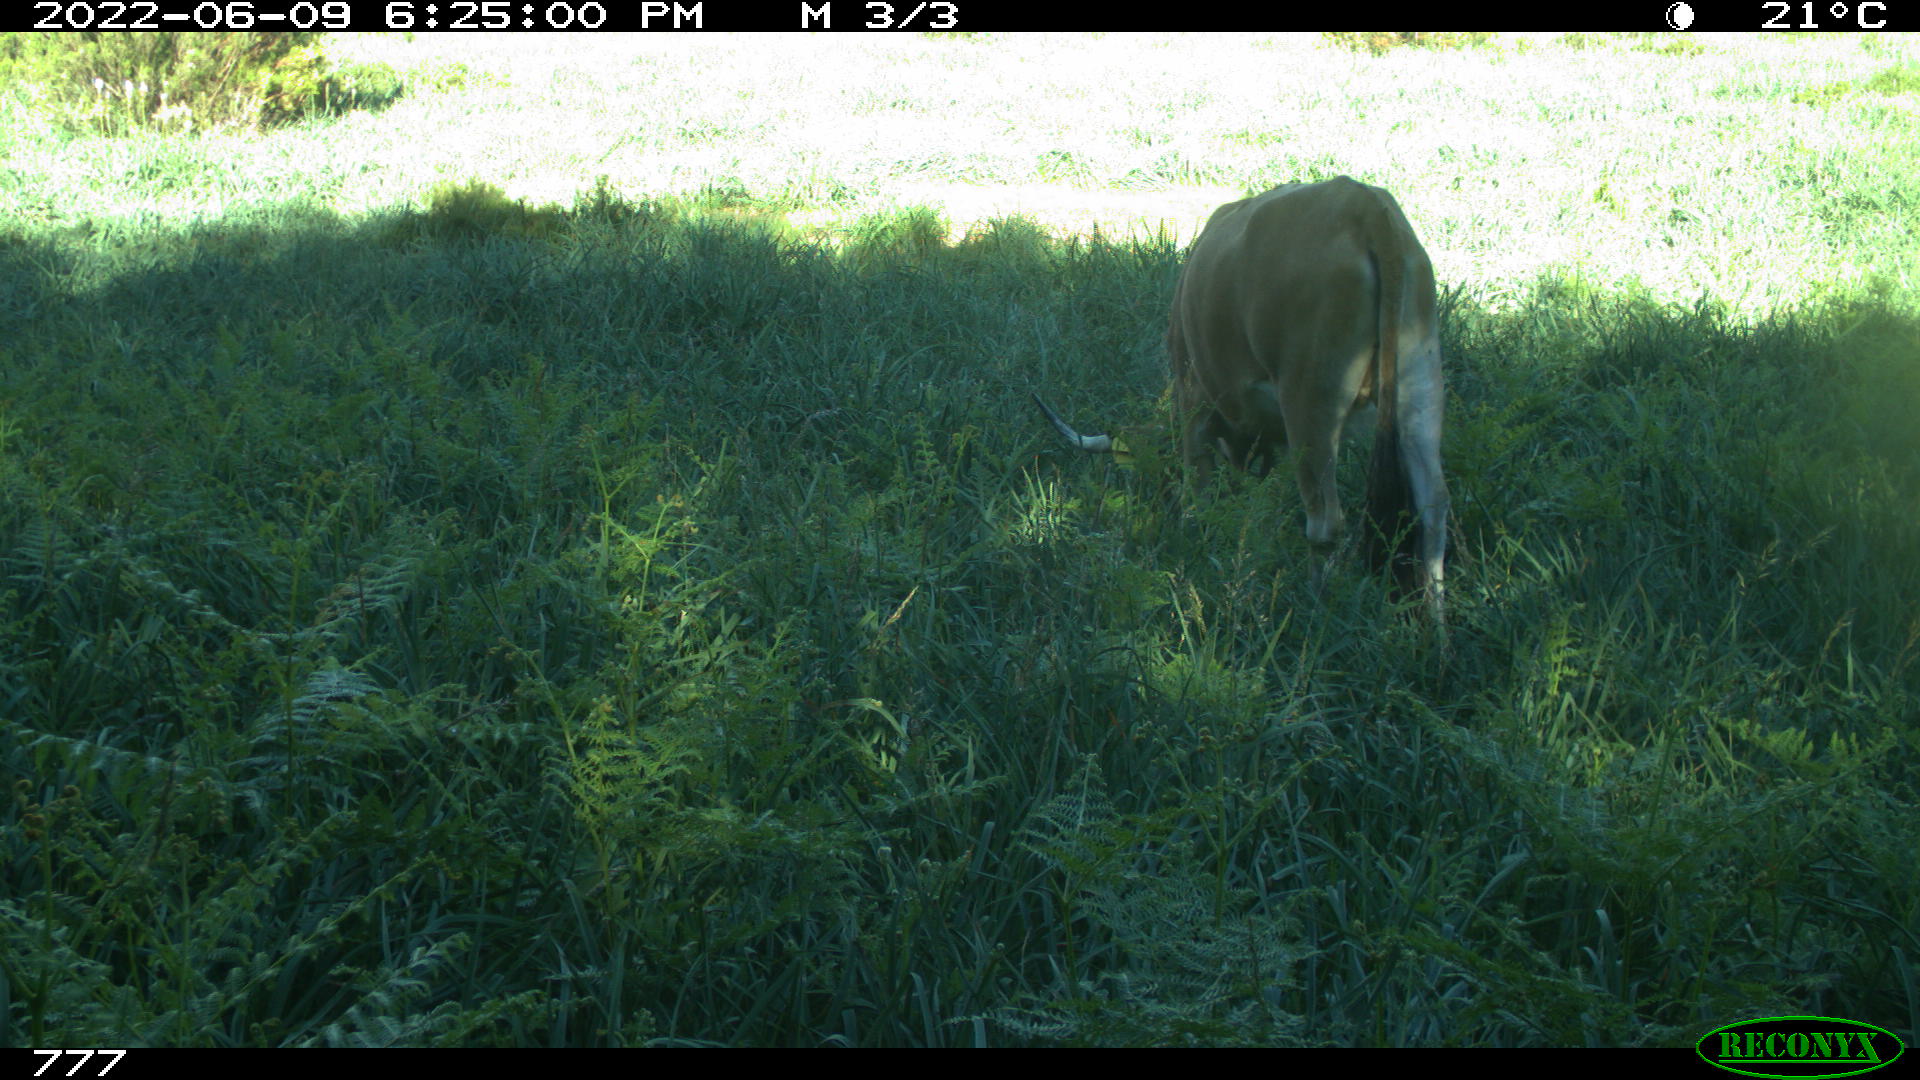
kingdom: Animalia
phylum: Chordata
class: Mammalia
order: Artiodactyla
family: Bovidae
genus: Bos
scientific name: Bos taurus
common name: Domesticated cattle
